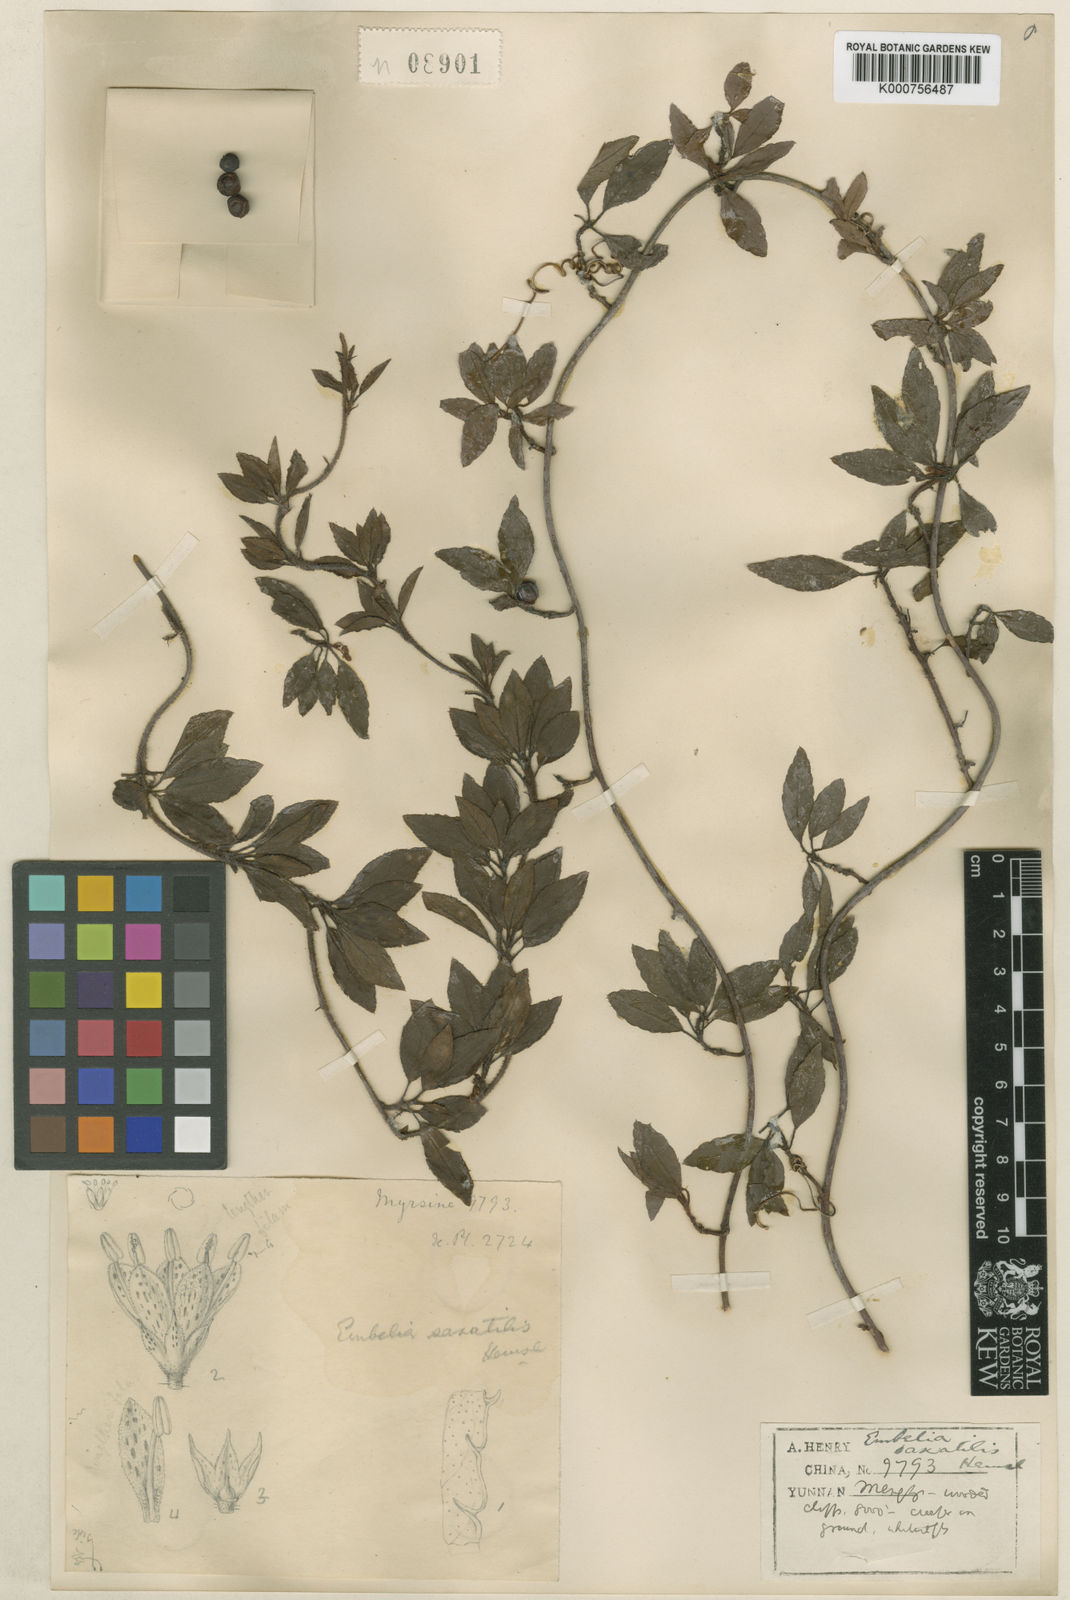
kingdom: Plantae
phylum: Tracheophyta
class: Magnoliopsida
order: Ericales
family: Primulaceae
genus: Embelia
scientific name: Embelia procumbens
